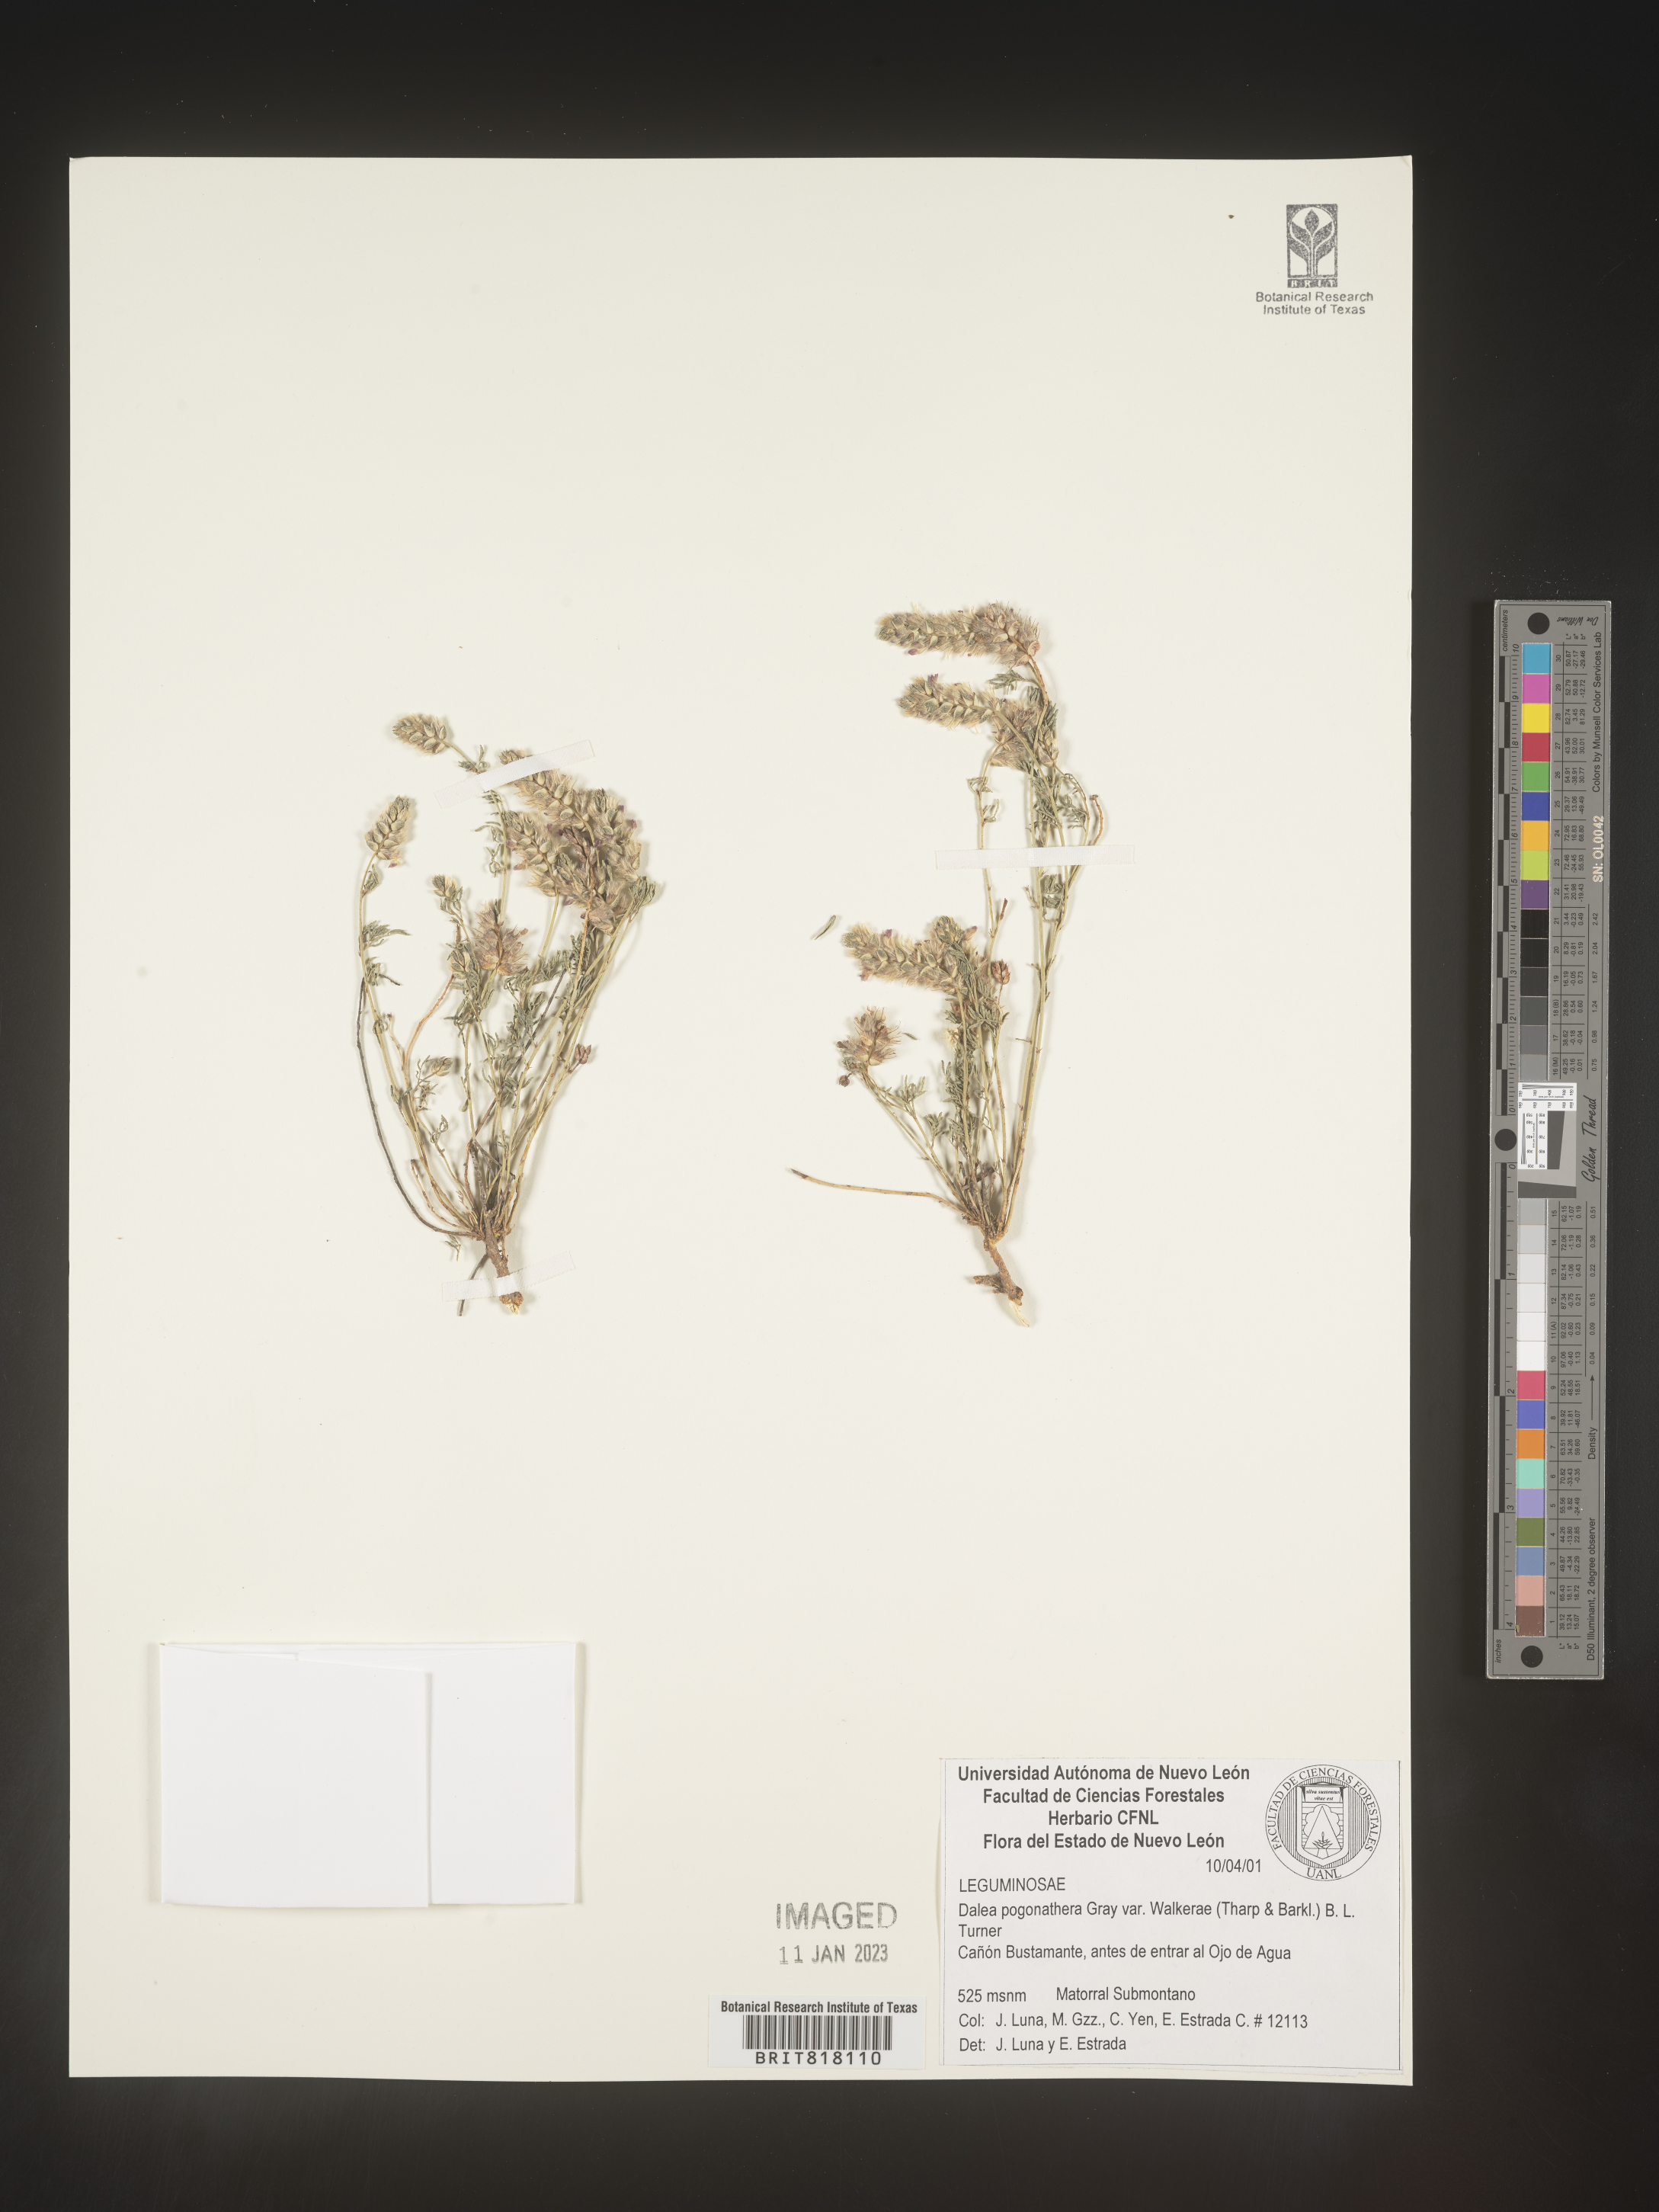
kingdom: Plantae
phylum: Tracheophyta
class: Magnoliopsida
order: Fabales
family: Fabaceae
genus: Dalea
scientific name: Dalea
